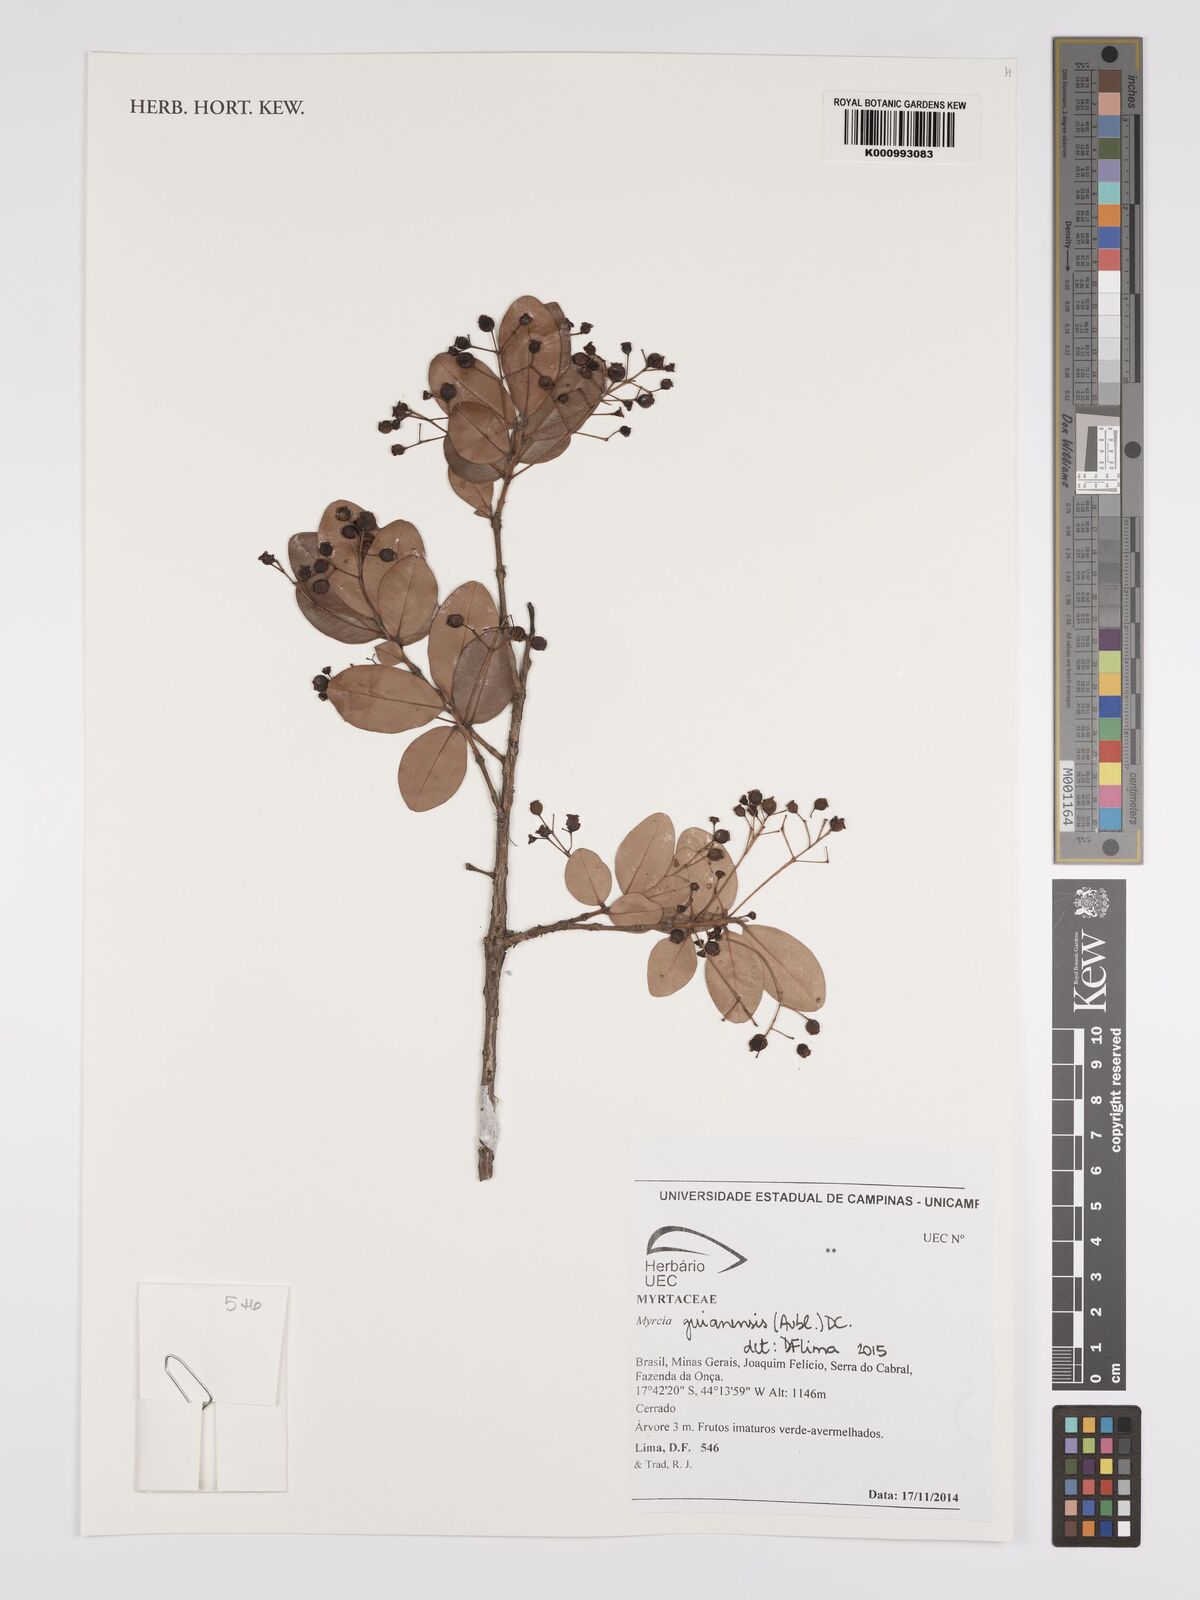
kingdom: Plantae
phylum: Tracheophyta
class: Magnoliopsida
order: Myrtales
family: Myrtaceae
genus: Myrcia
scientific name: Myrcia guianensis
